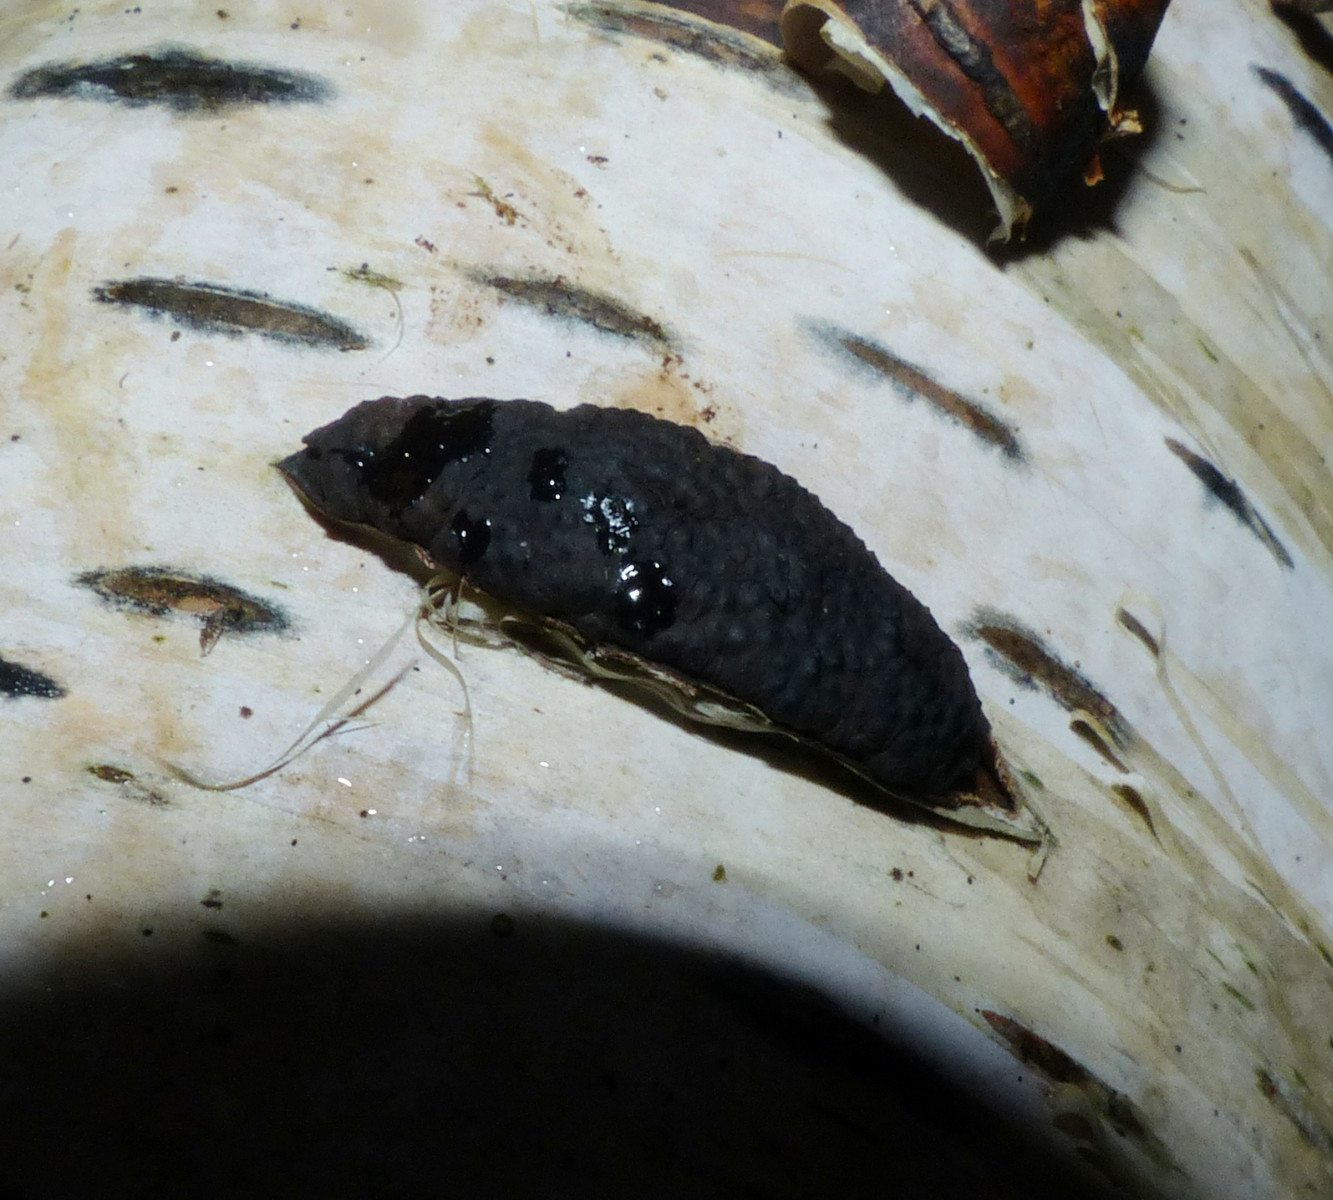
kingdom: Fungi
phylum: Ascomycota
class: Sordariomycetes
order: Xylariales
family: Hypoxylaceae
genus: Jackrogersella
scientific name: Jackrogersella multiformis
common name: foranderlig kulbær
